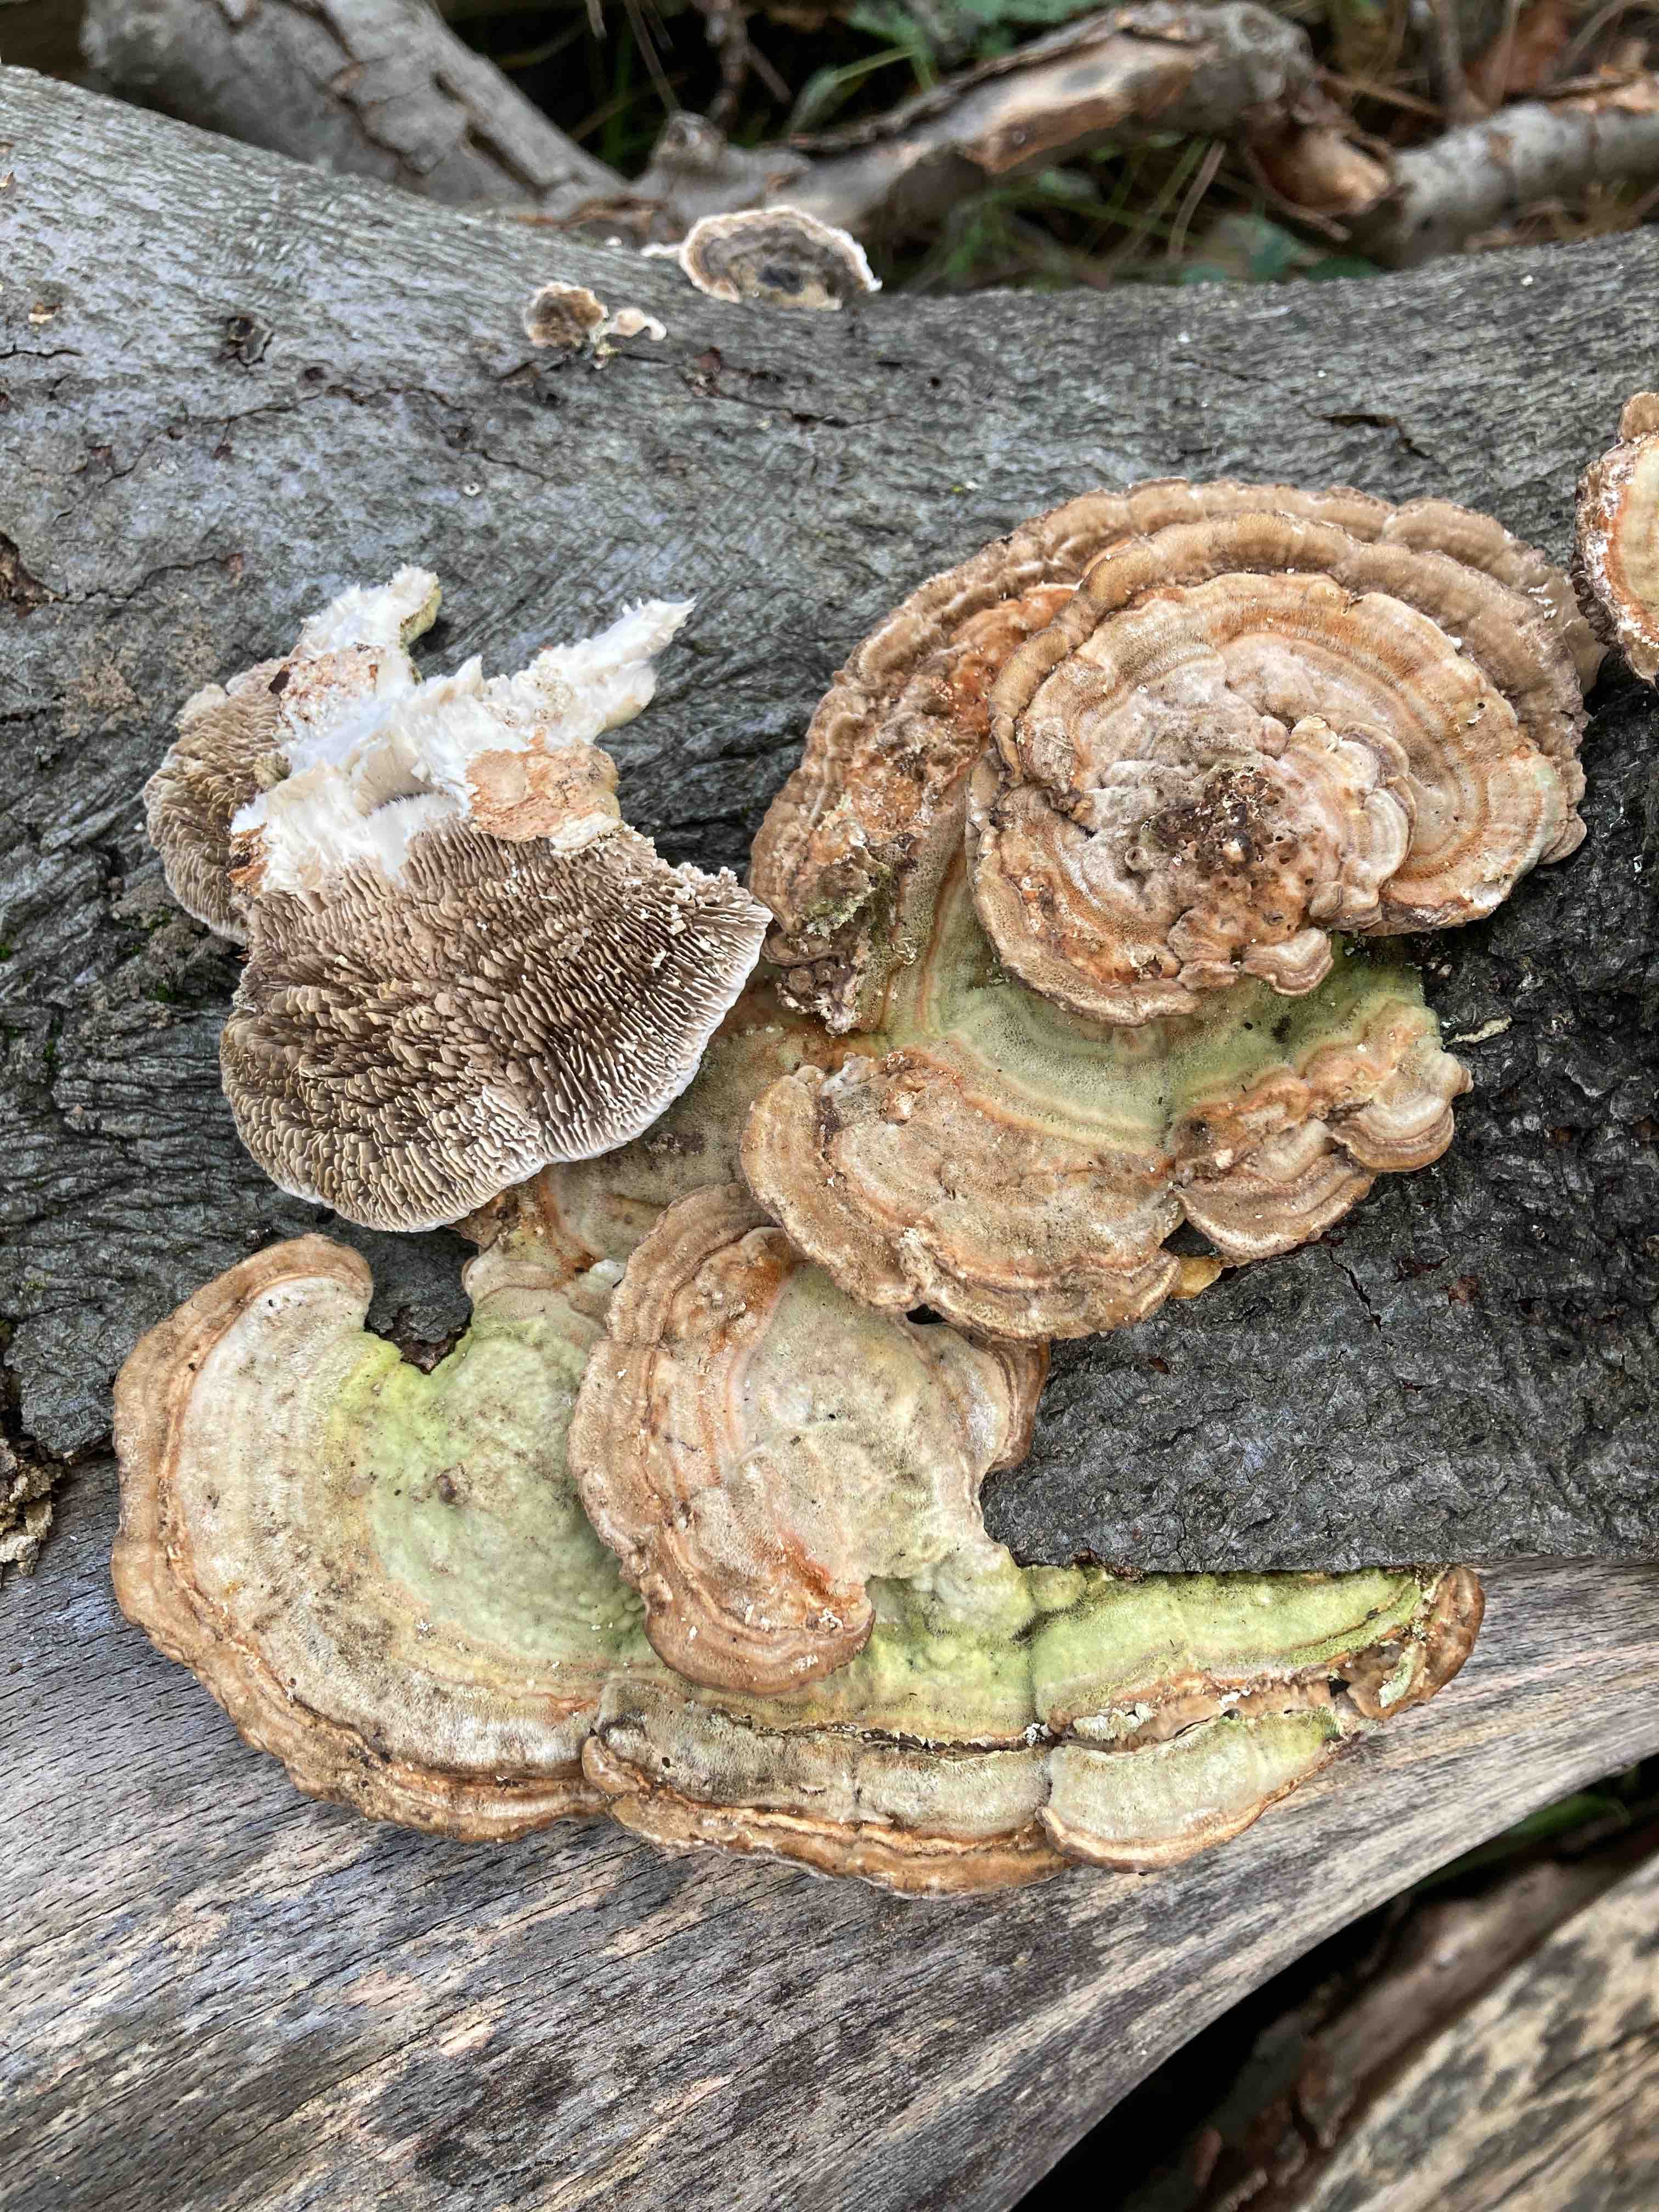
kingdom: Fungi
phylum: Basidiomycota
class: Agaricomycetes
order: Polyporales
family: Polyporaceae
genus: Lenzites
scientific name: Lenzites betulinus
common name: birke-læderporesvamp
